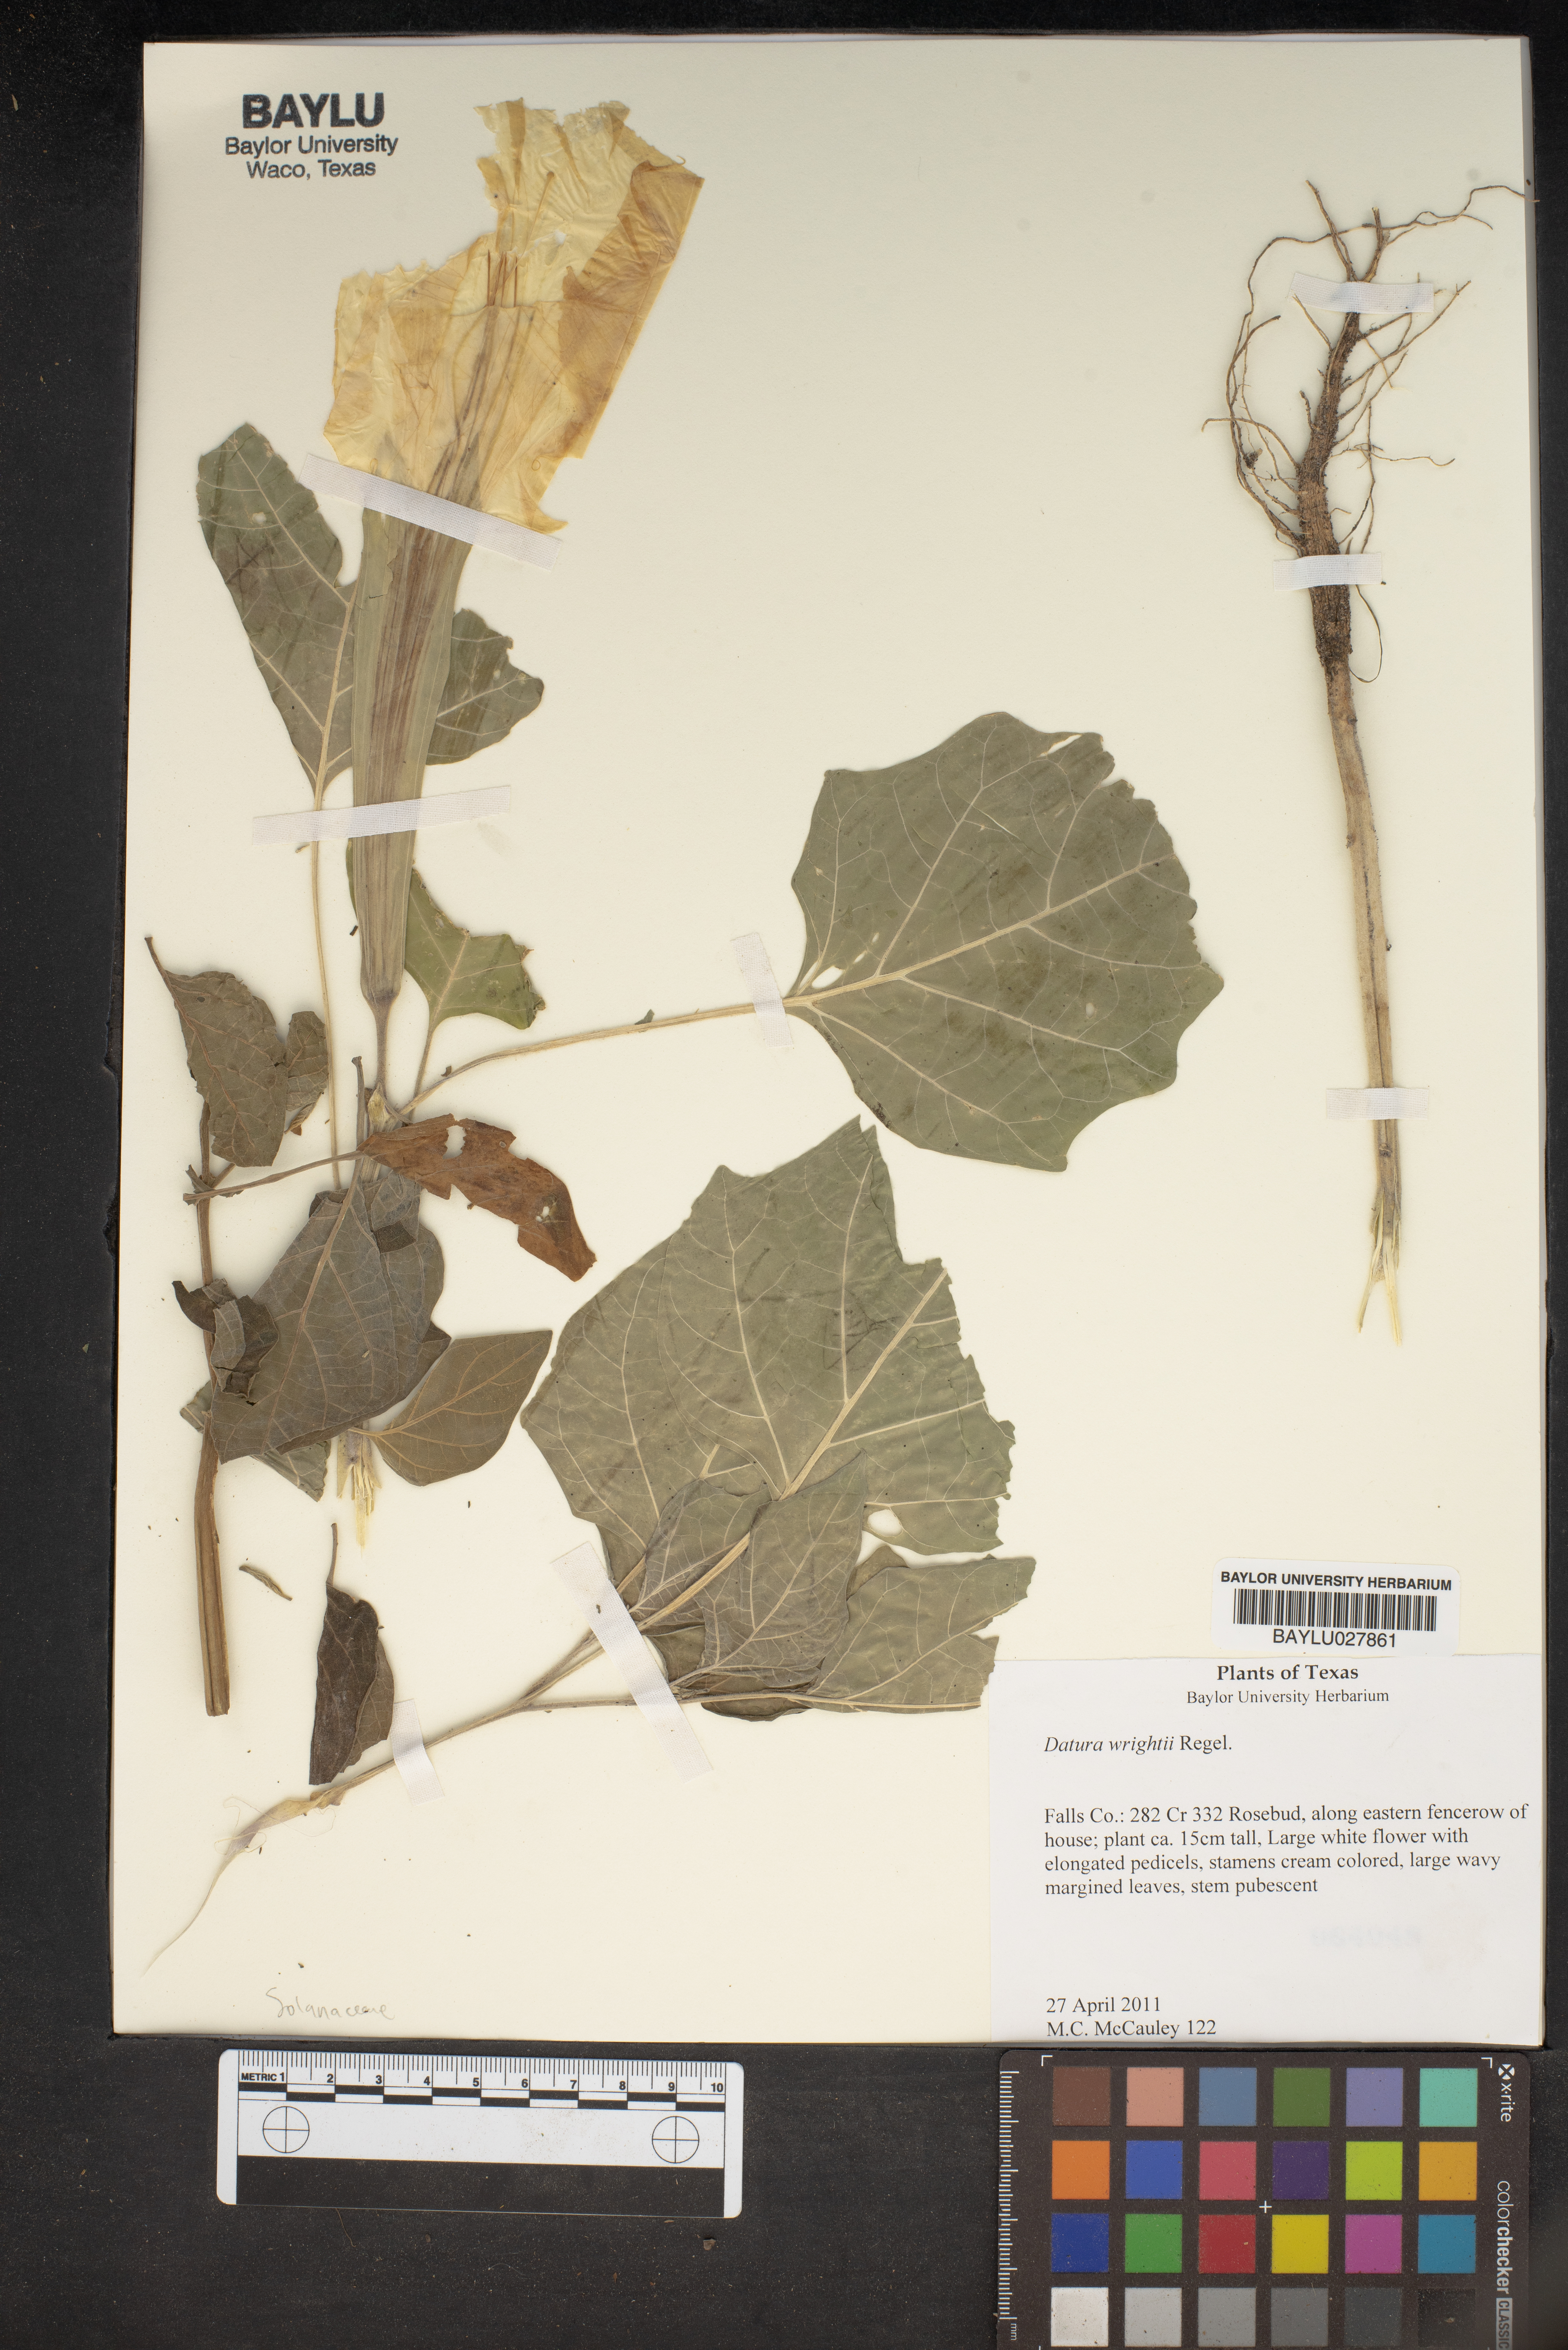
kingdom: Plantae
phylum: Tracheophyta
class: Magnoliopsida
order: Solanales
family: Solanaceae
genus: Datura
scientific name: Datura wrightii
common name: Sacred thorn-apple
